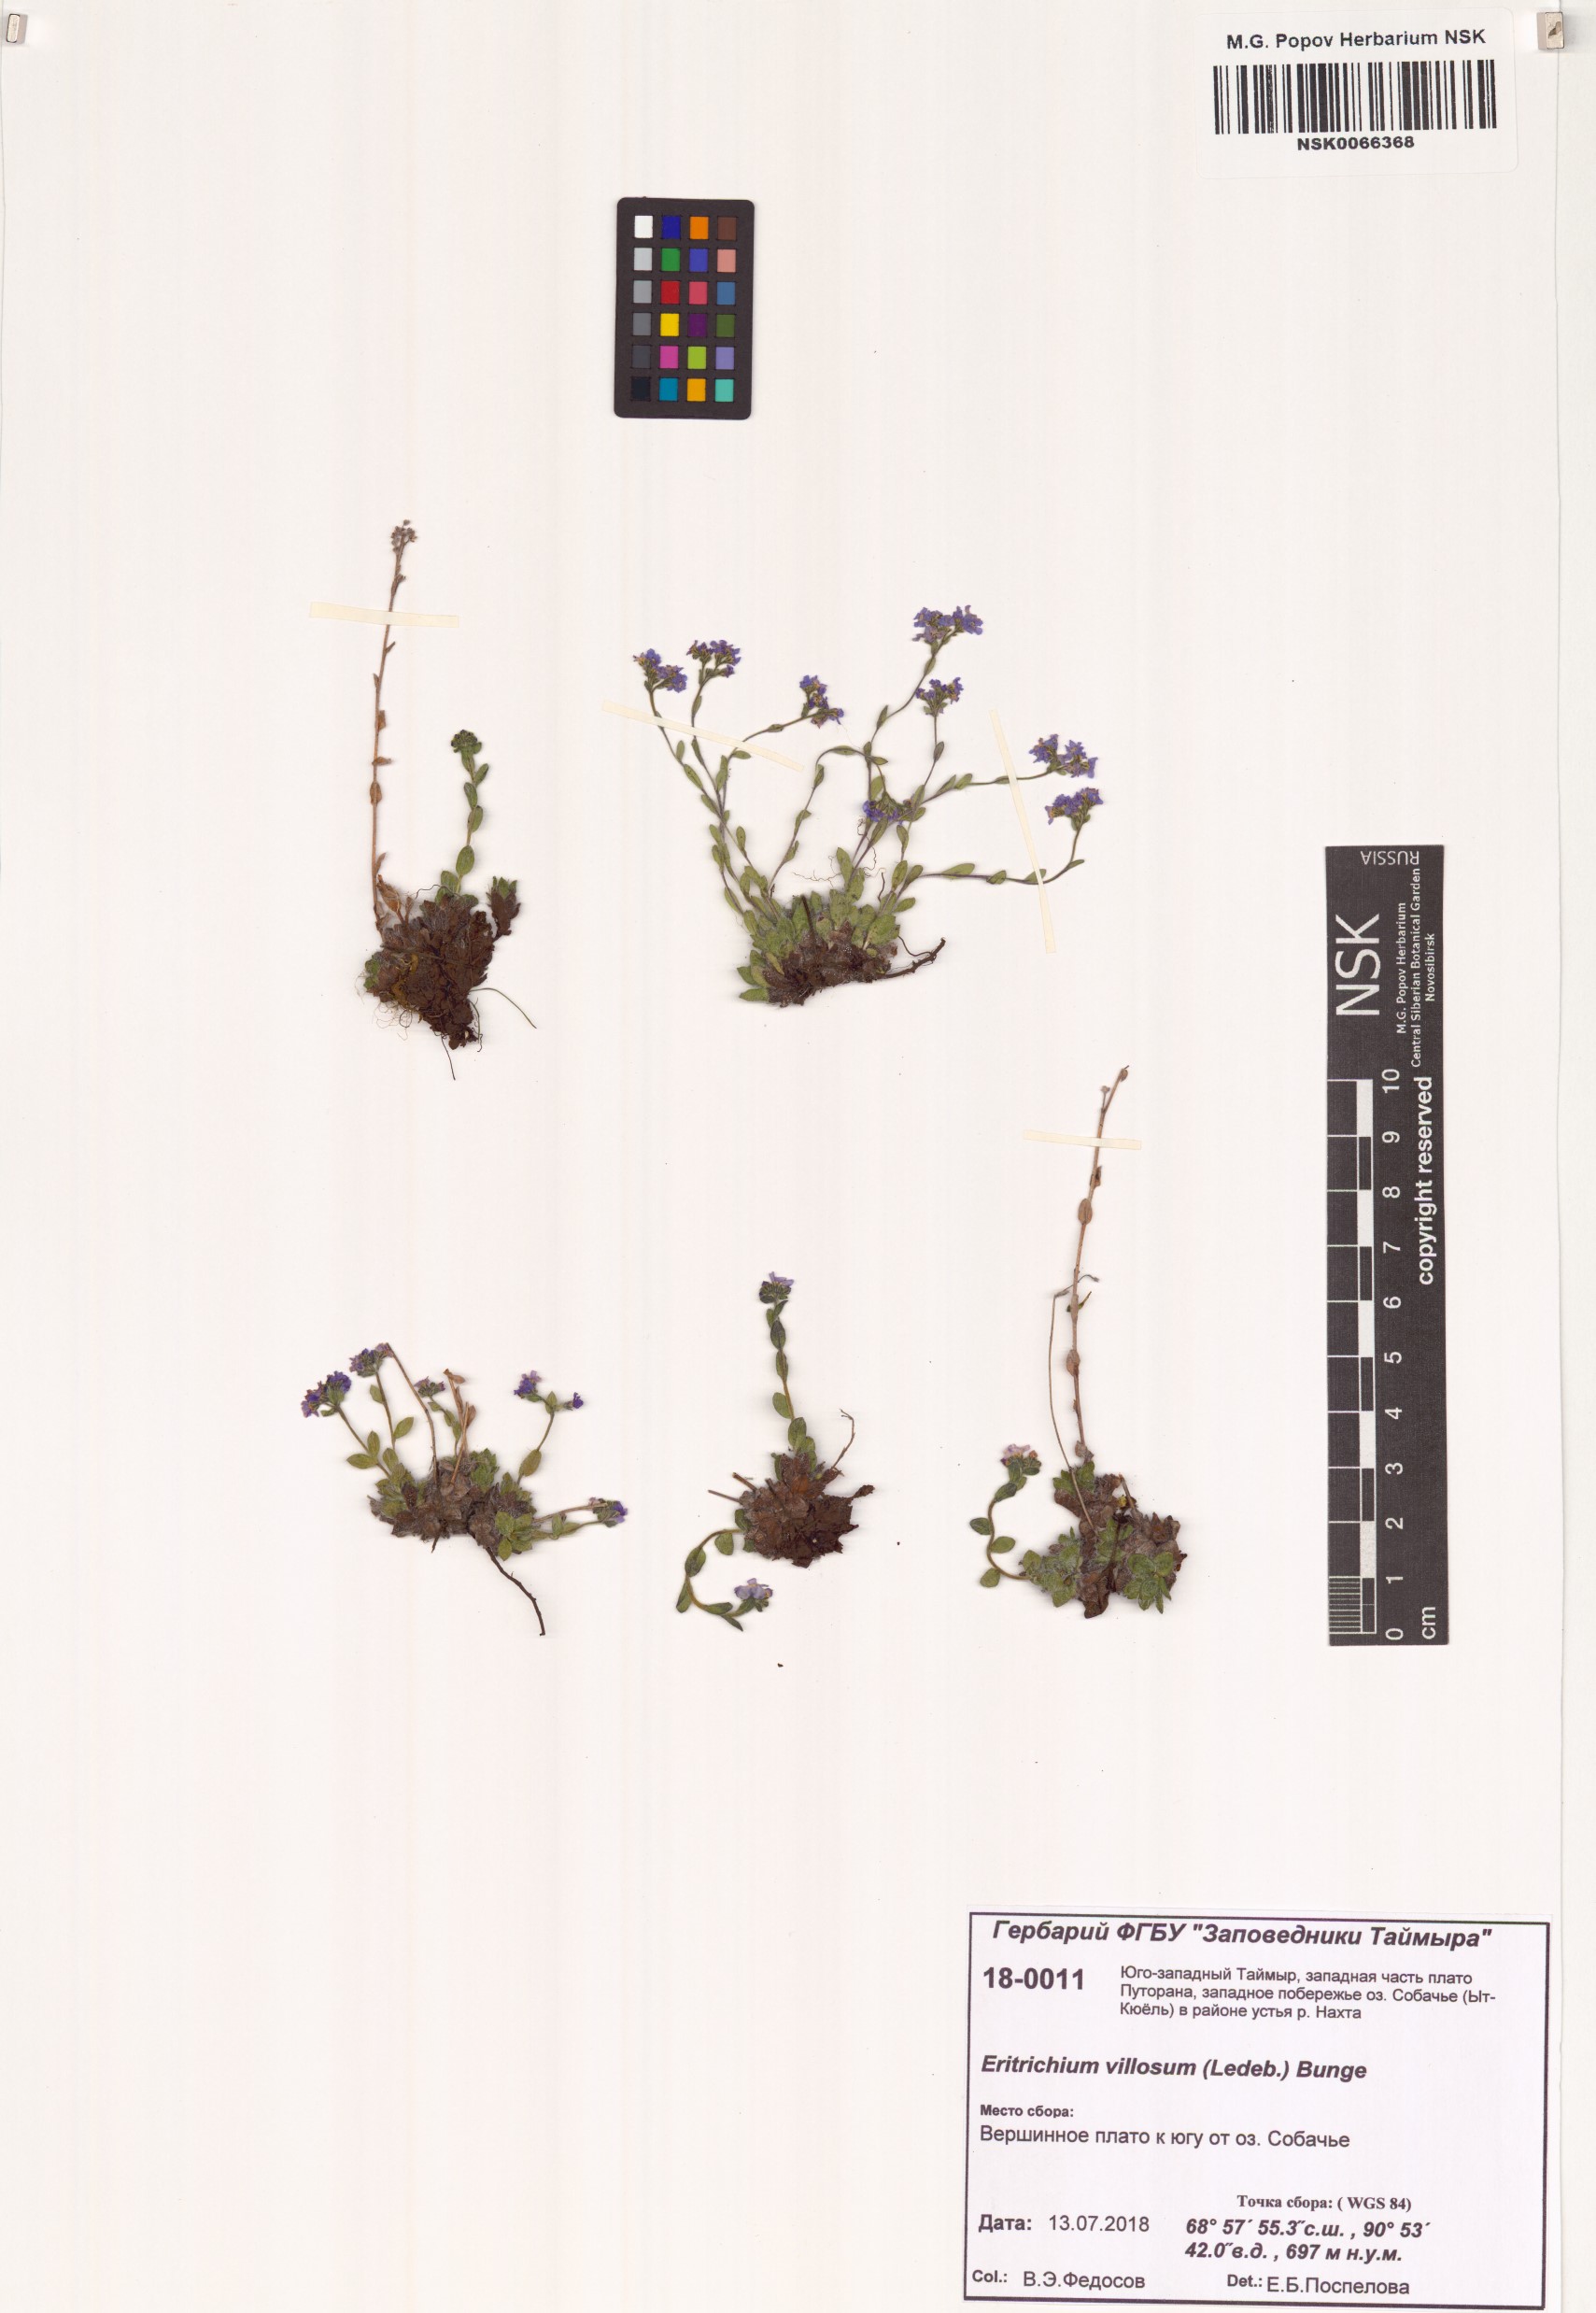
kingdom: Plantae
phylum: Tracheophyta
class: Magnoliopsida
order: Boraginales
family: Boraginaceae
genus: Eritrichium
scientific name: Eritrichium villosum
